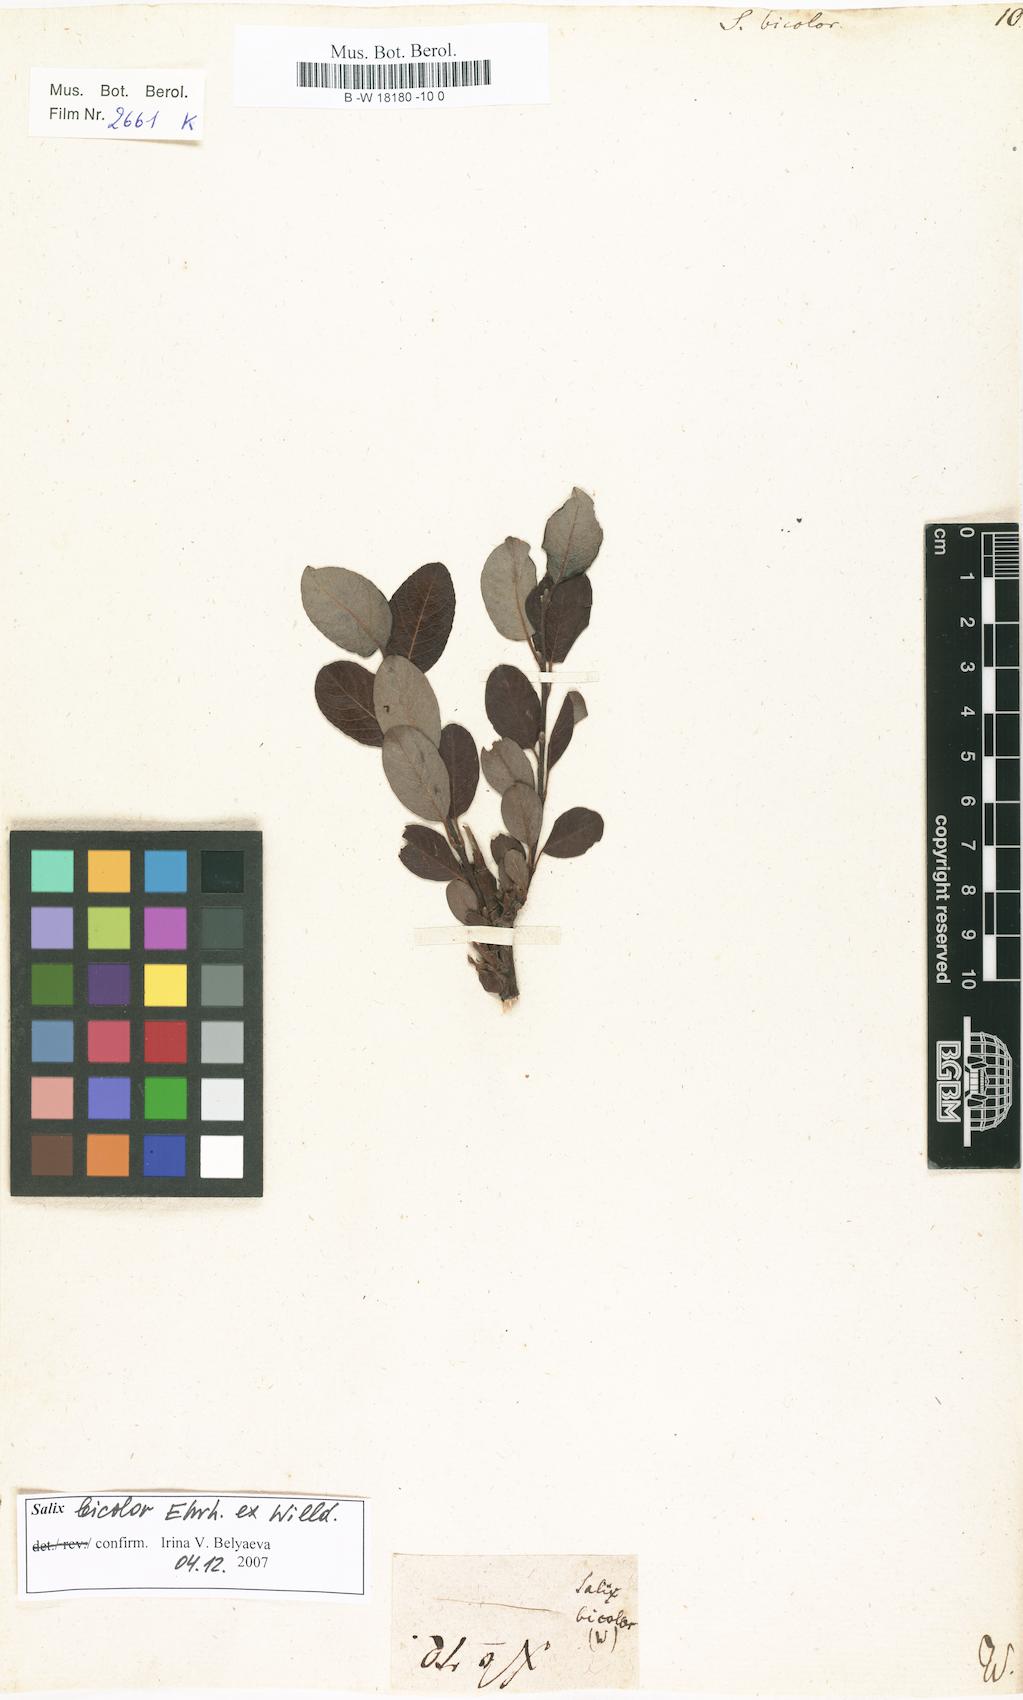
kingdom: Plantae
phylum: Tracheophyta
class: Magnoliopsida
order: Malpighiales
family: Salicaceae
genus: Salix
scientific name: Salix bicolor
